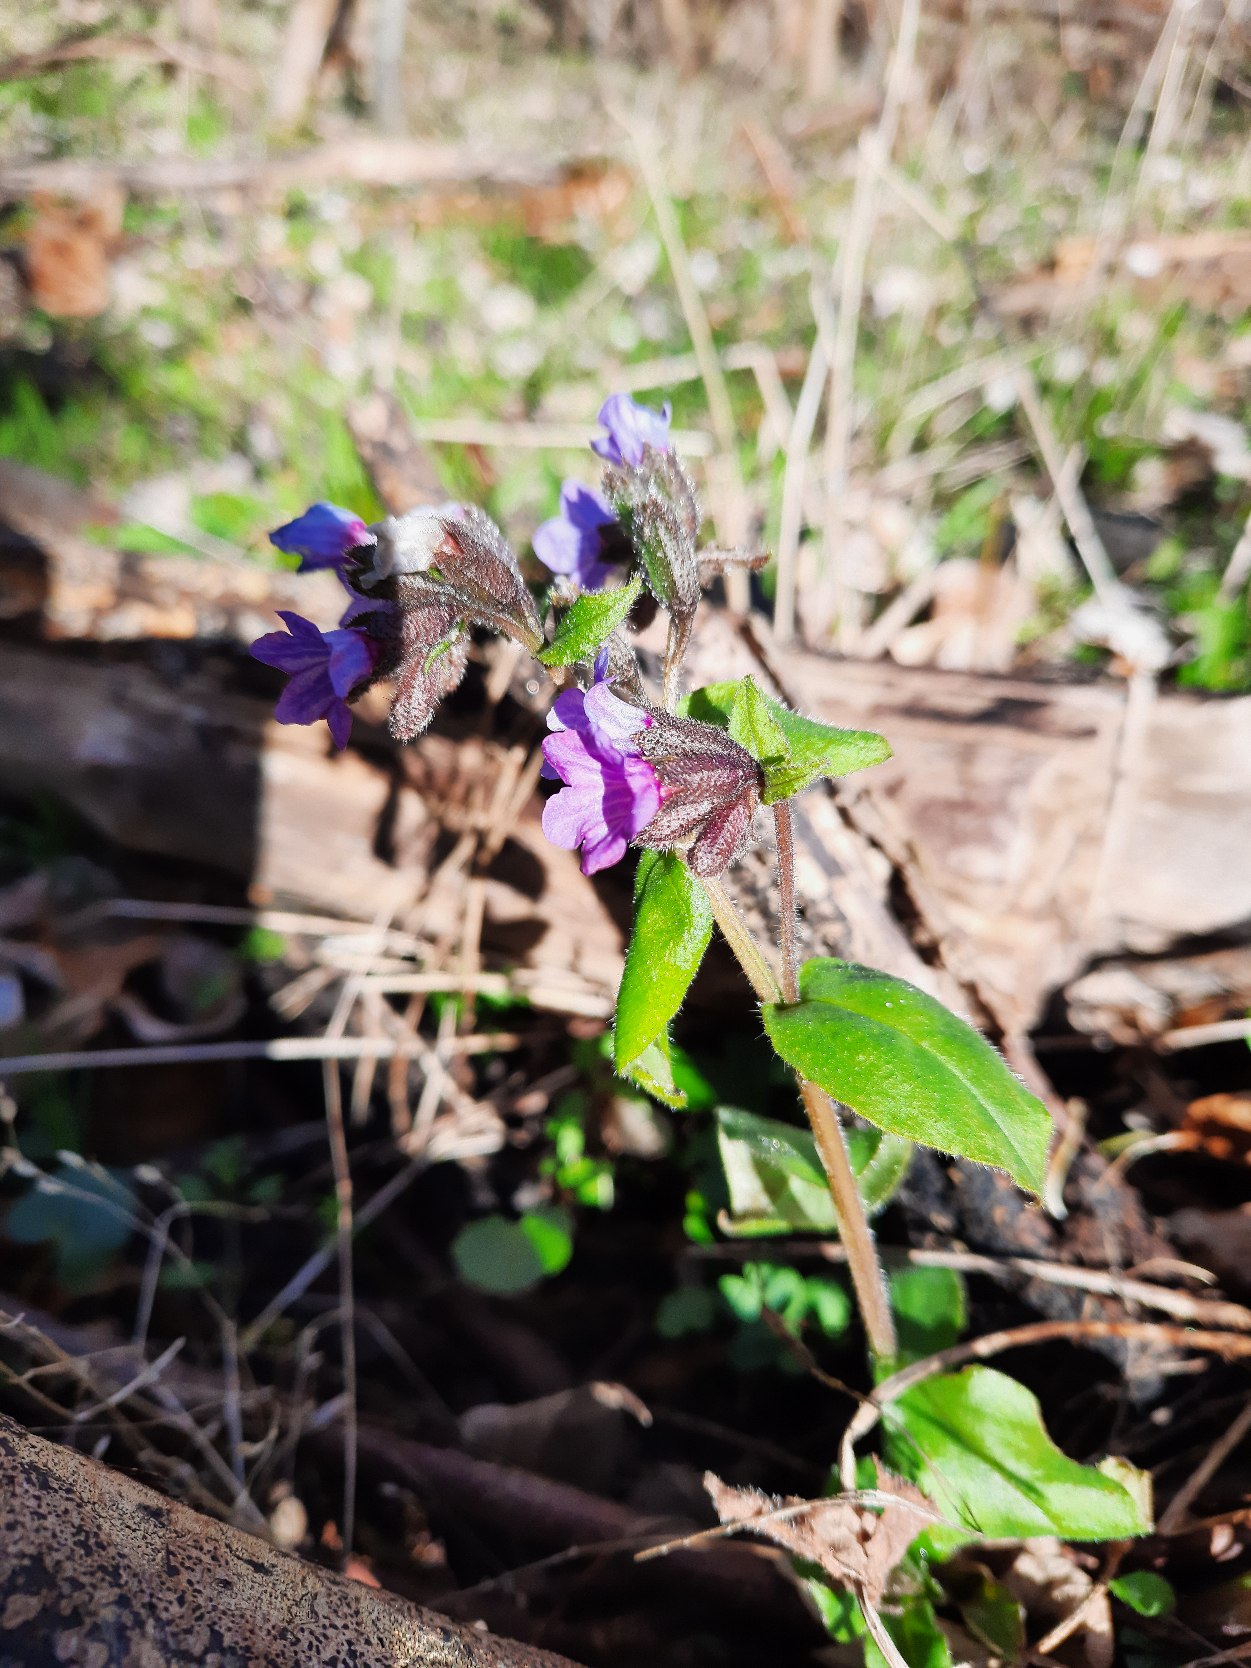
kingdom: Plantae
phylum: Tracheophyta
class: Magnoliopsida
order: Boraginales
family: Boraginaceae
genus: Pulmonaria
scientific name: Pulmonaria obscura
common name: Almindelig lungeurt
